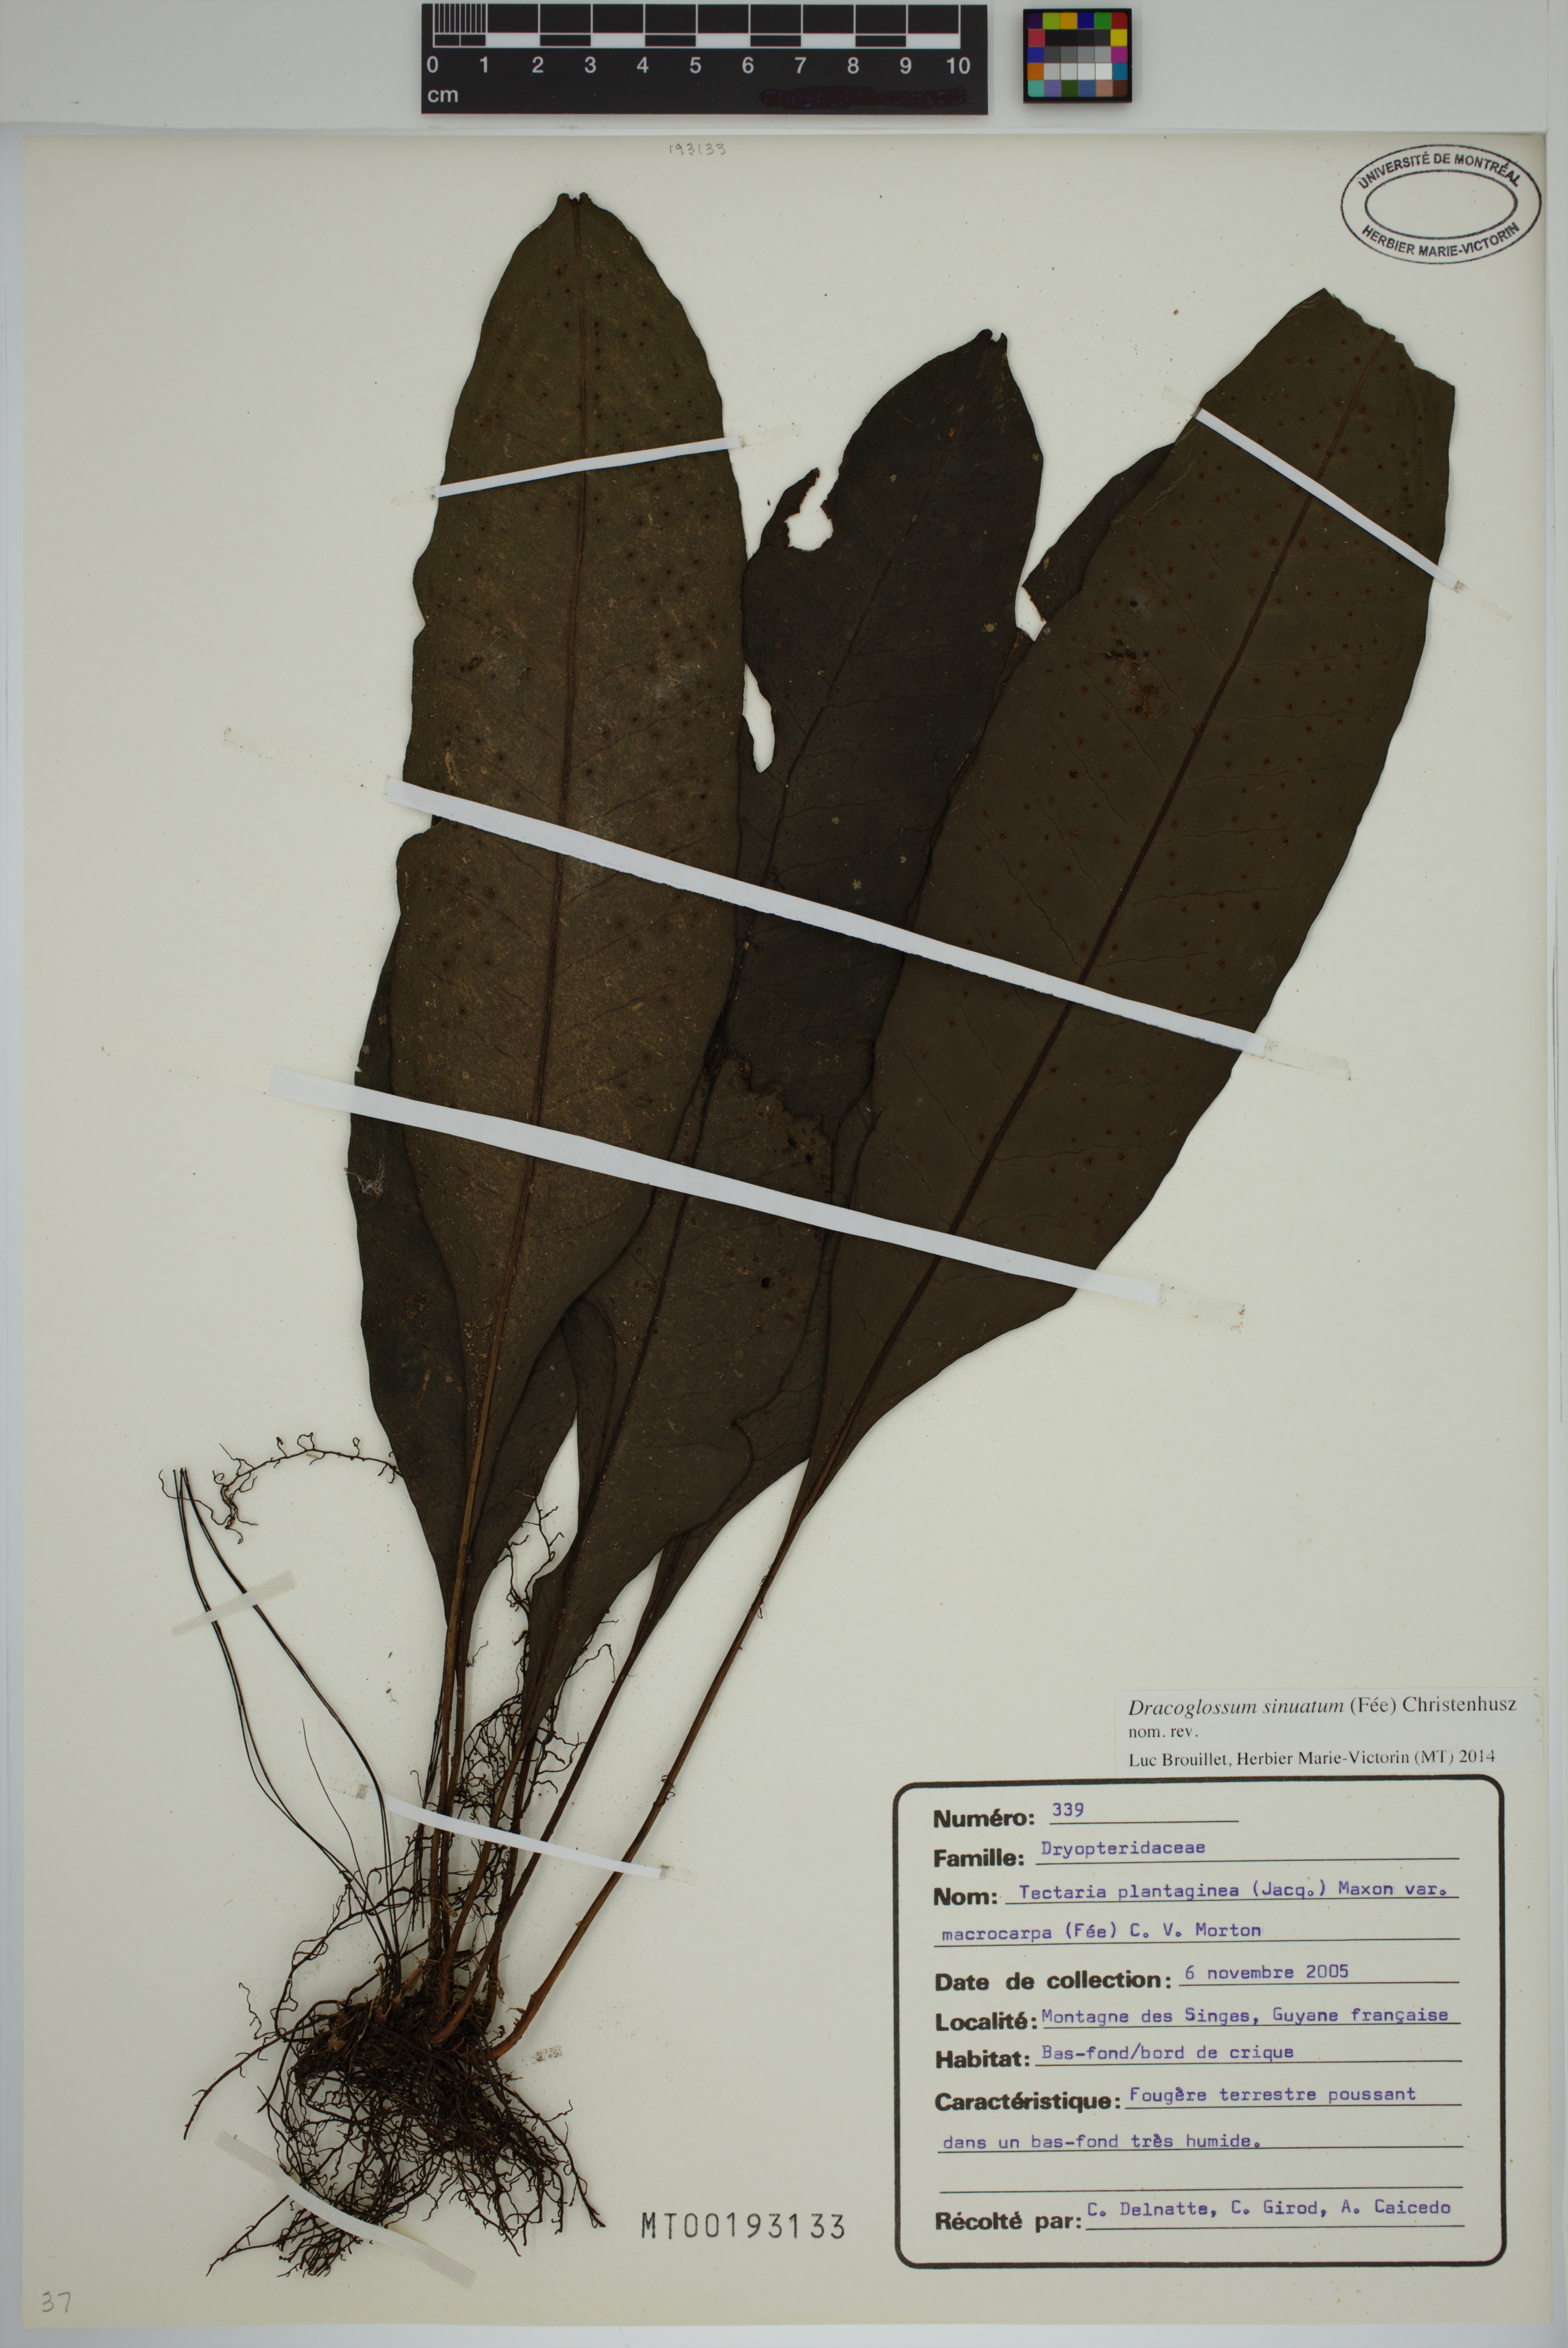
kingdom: Plantae
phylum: Tracheophyta
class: Polypodiopsida
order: Polypodiales
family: Lomariopsidaceae
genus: Dracoglossum
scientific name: Dracoglossum sinuatum
